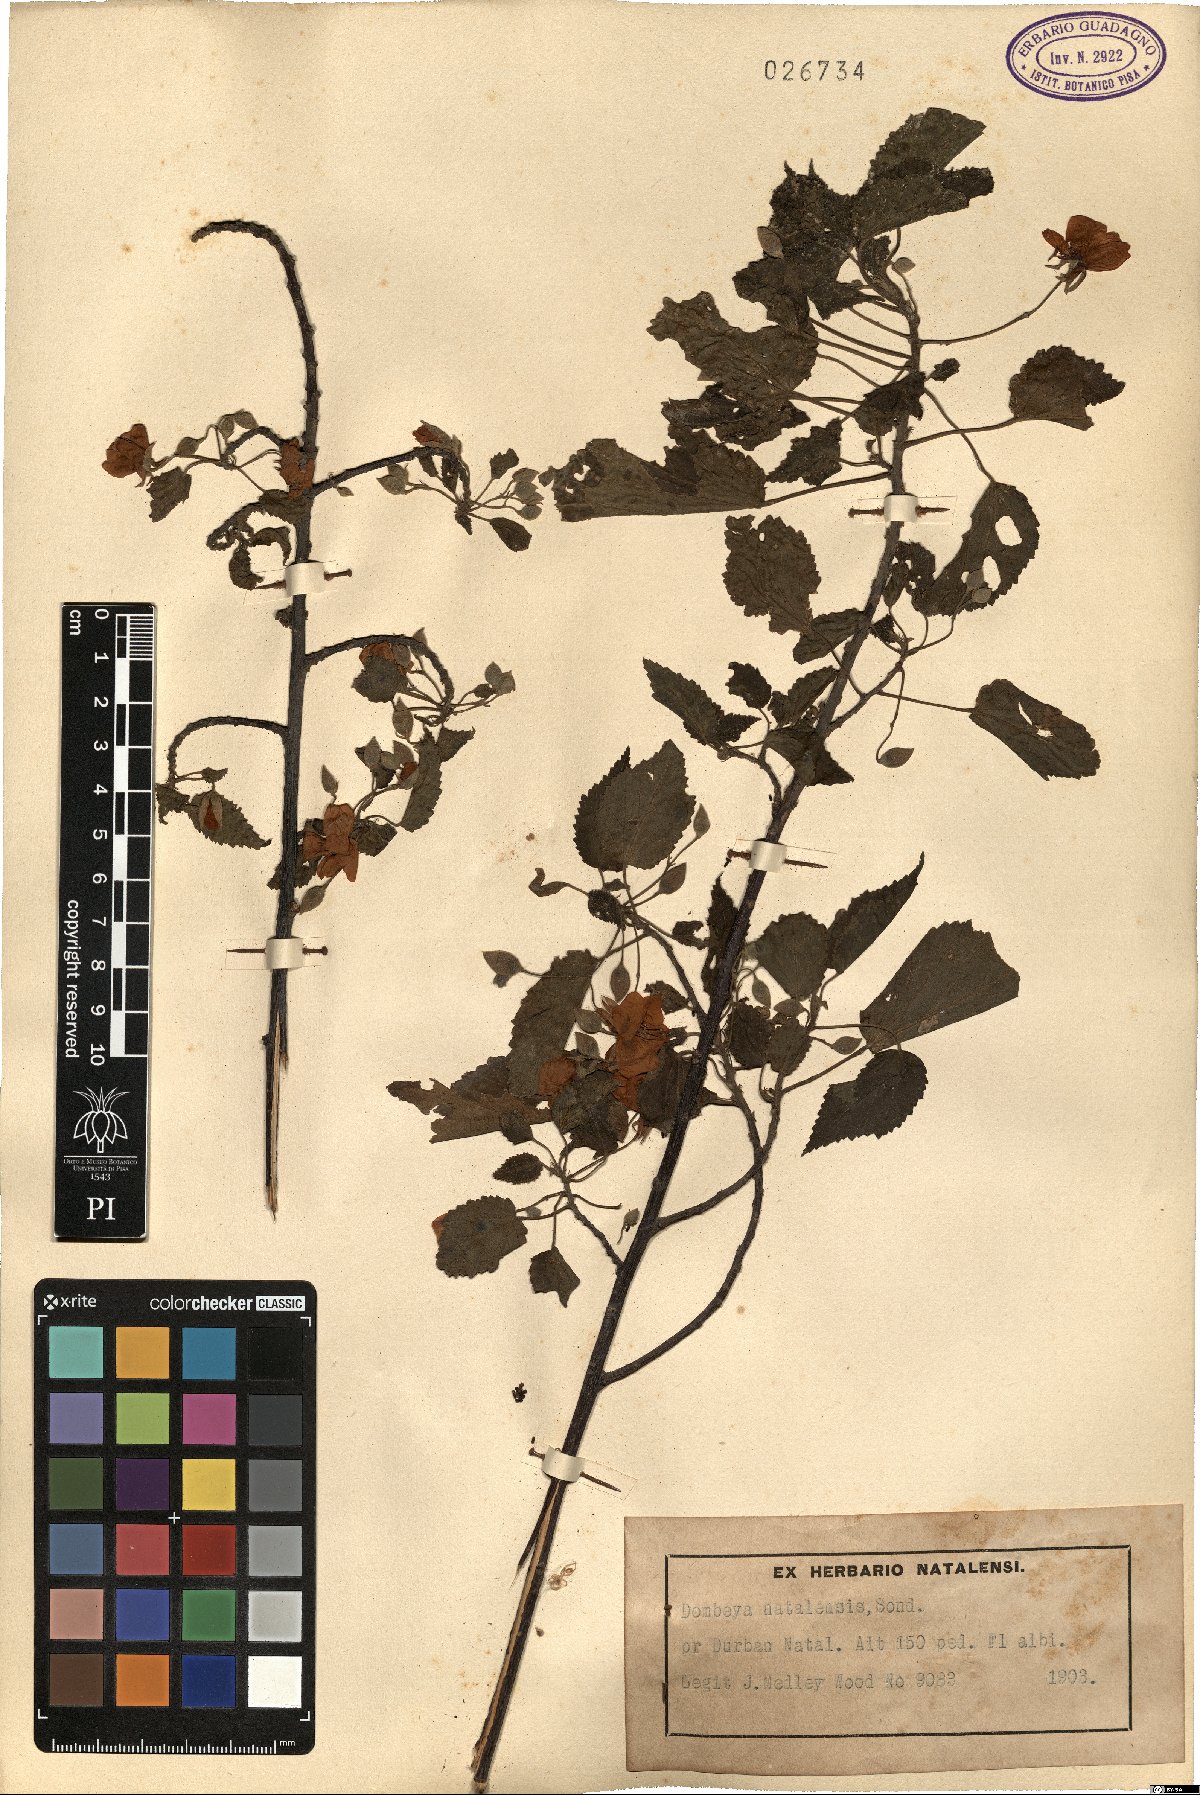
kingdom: Plantae
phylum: Tracheophyta
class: Magnoliopsida
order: Malvales
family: Malvaceae
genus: Dombeya
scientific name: Dombeya tiliacea
